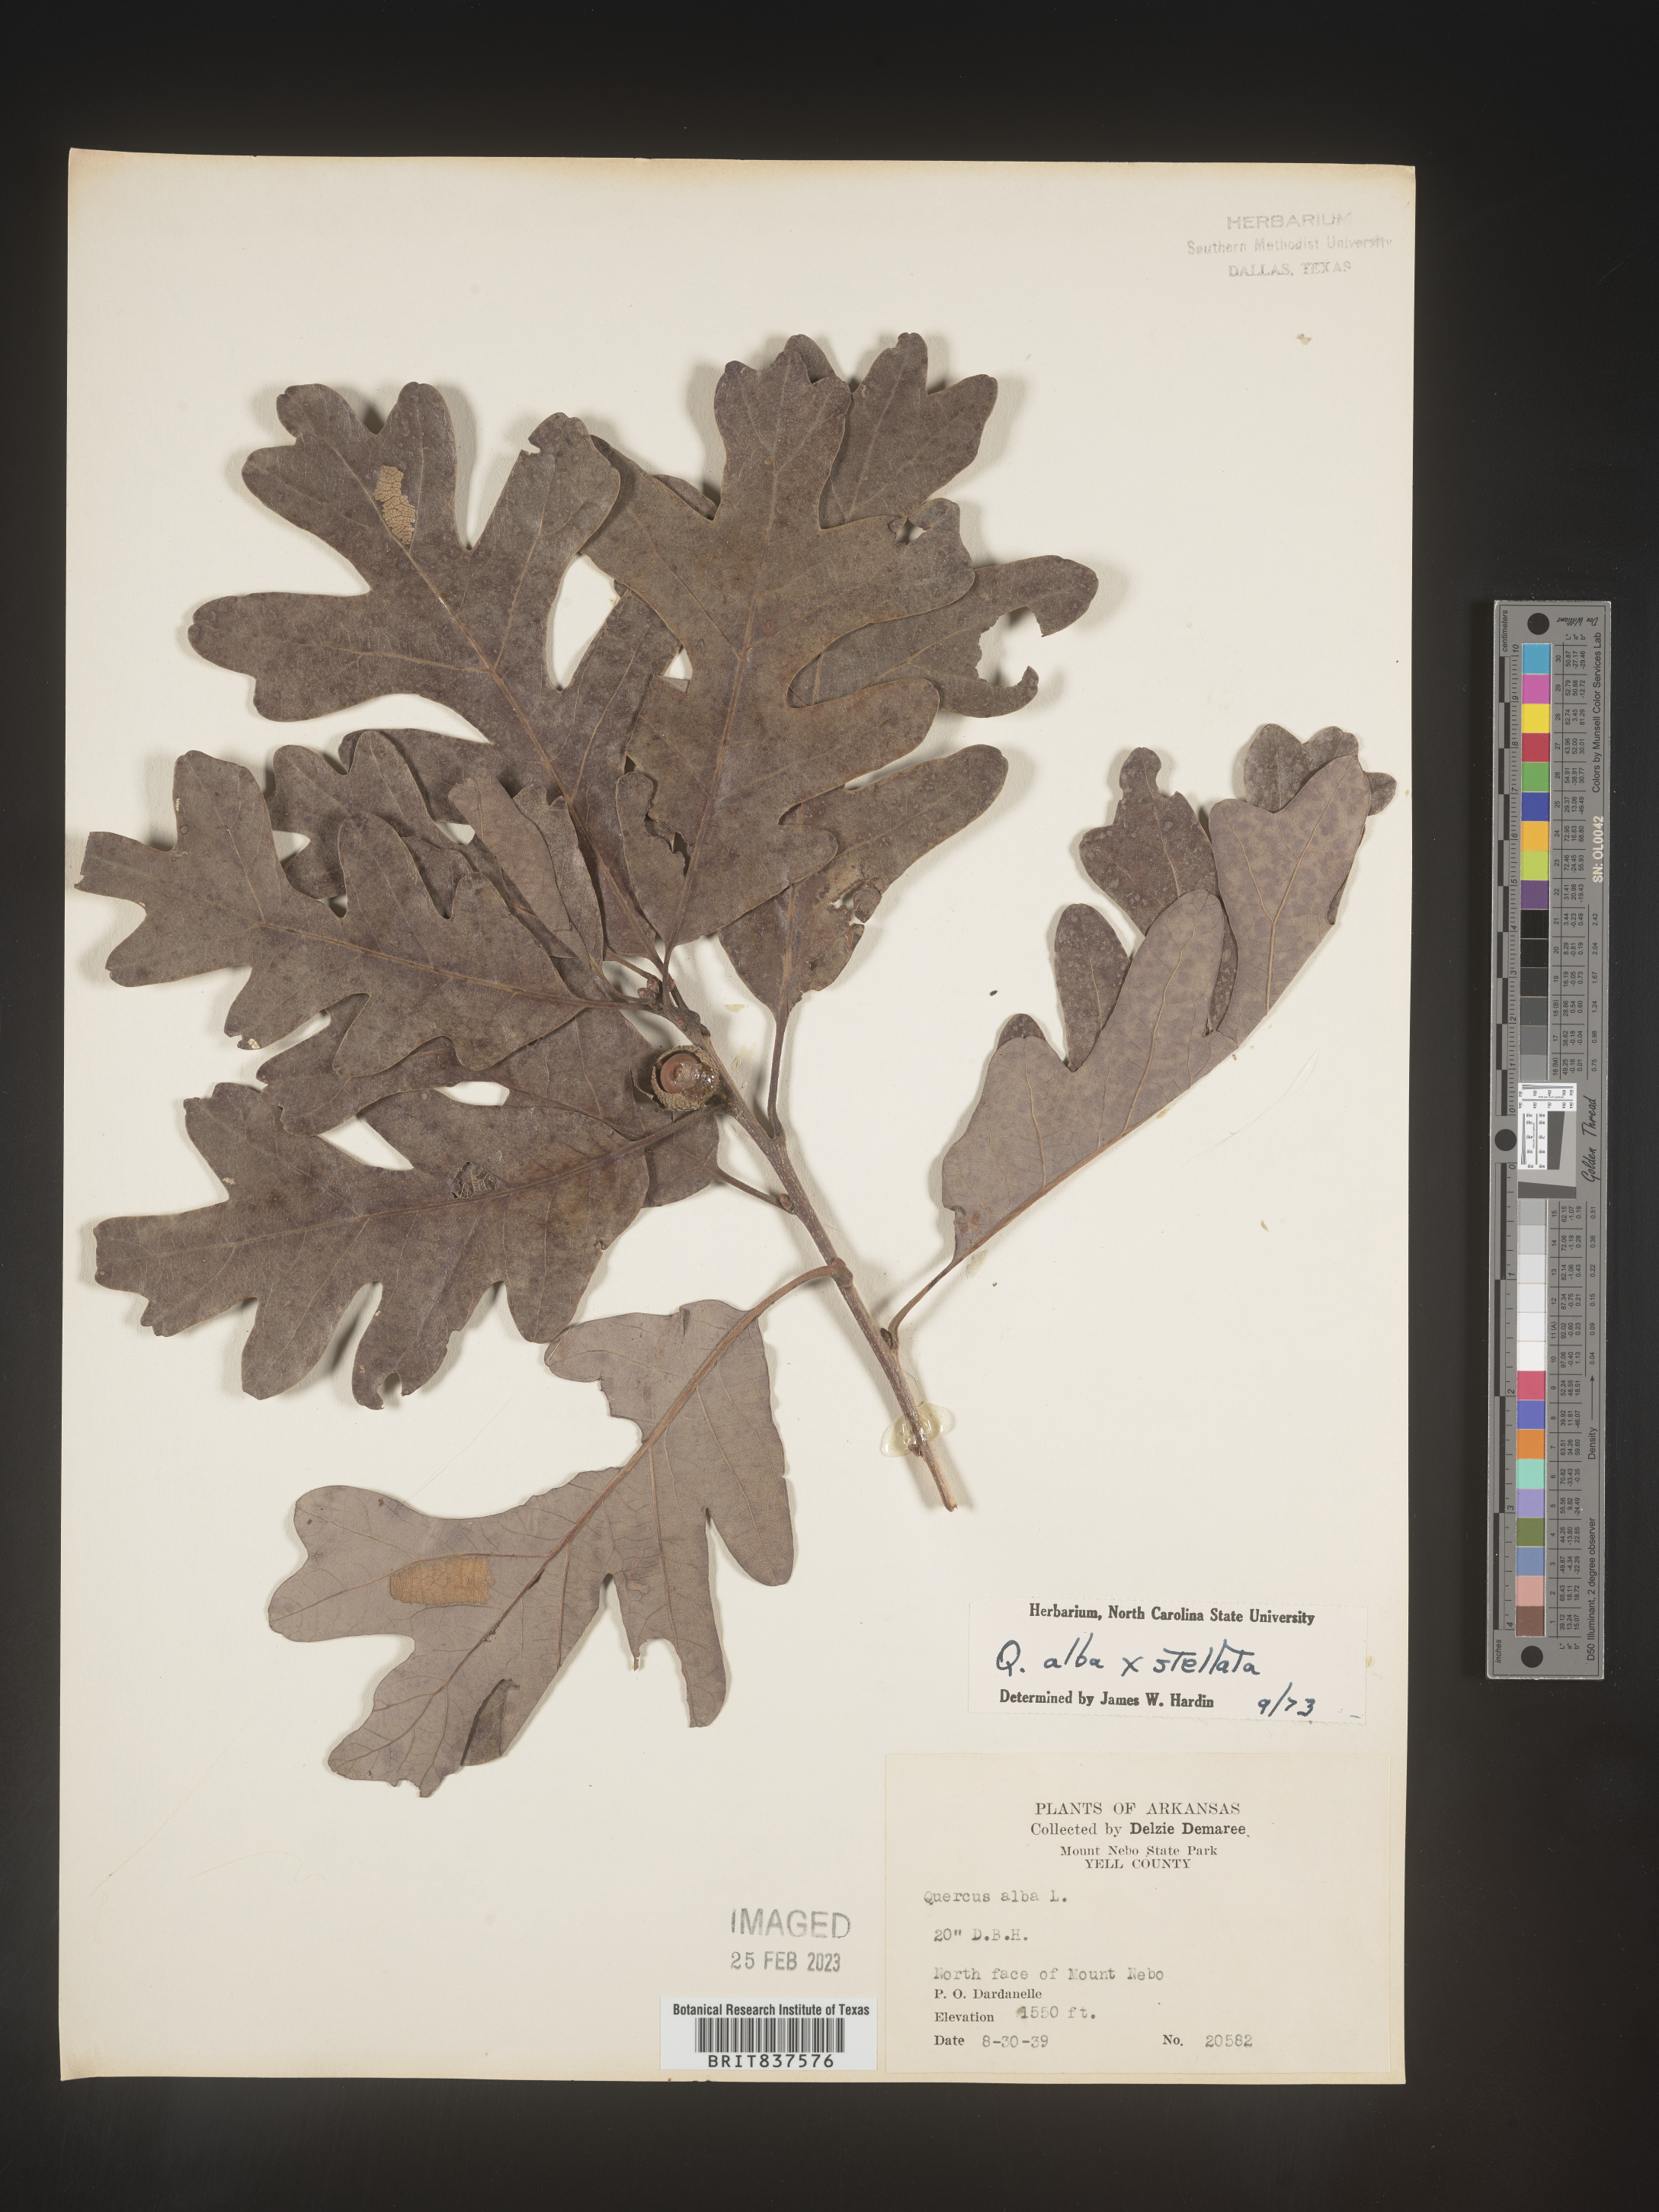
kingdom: Plantae
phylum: Tracheophyta
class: Magnoliopsida
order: Fagales
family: Fagaceae
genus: Quercus
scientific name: Quercus alba
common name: White oak
